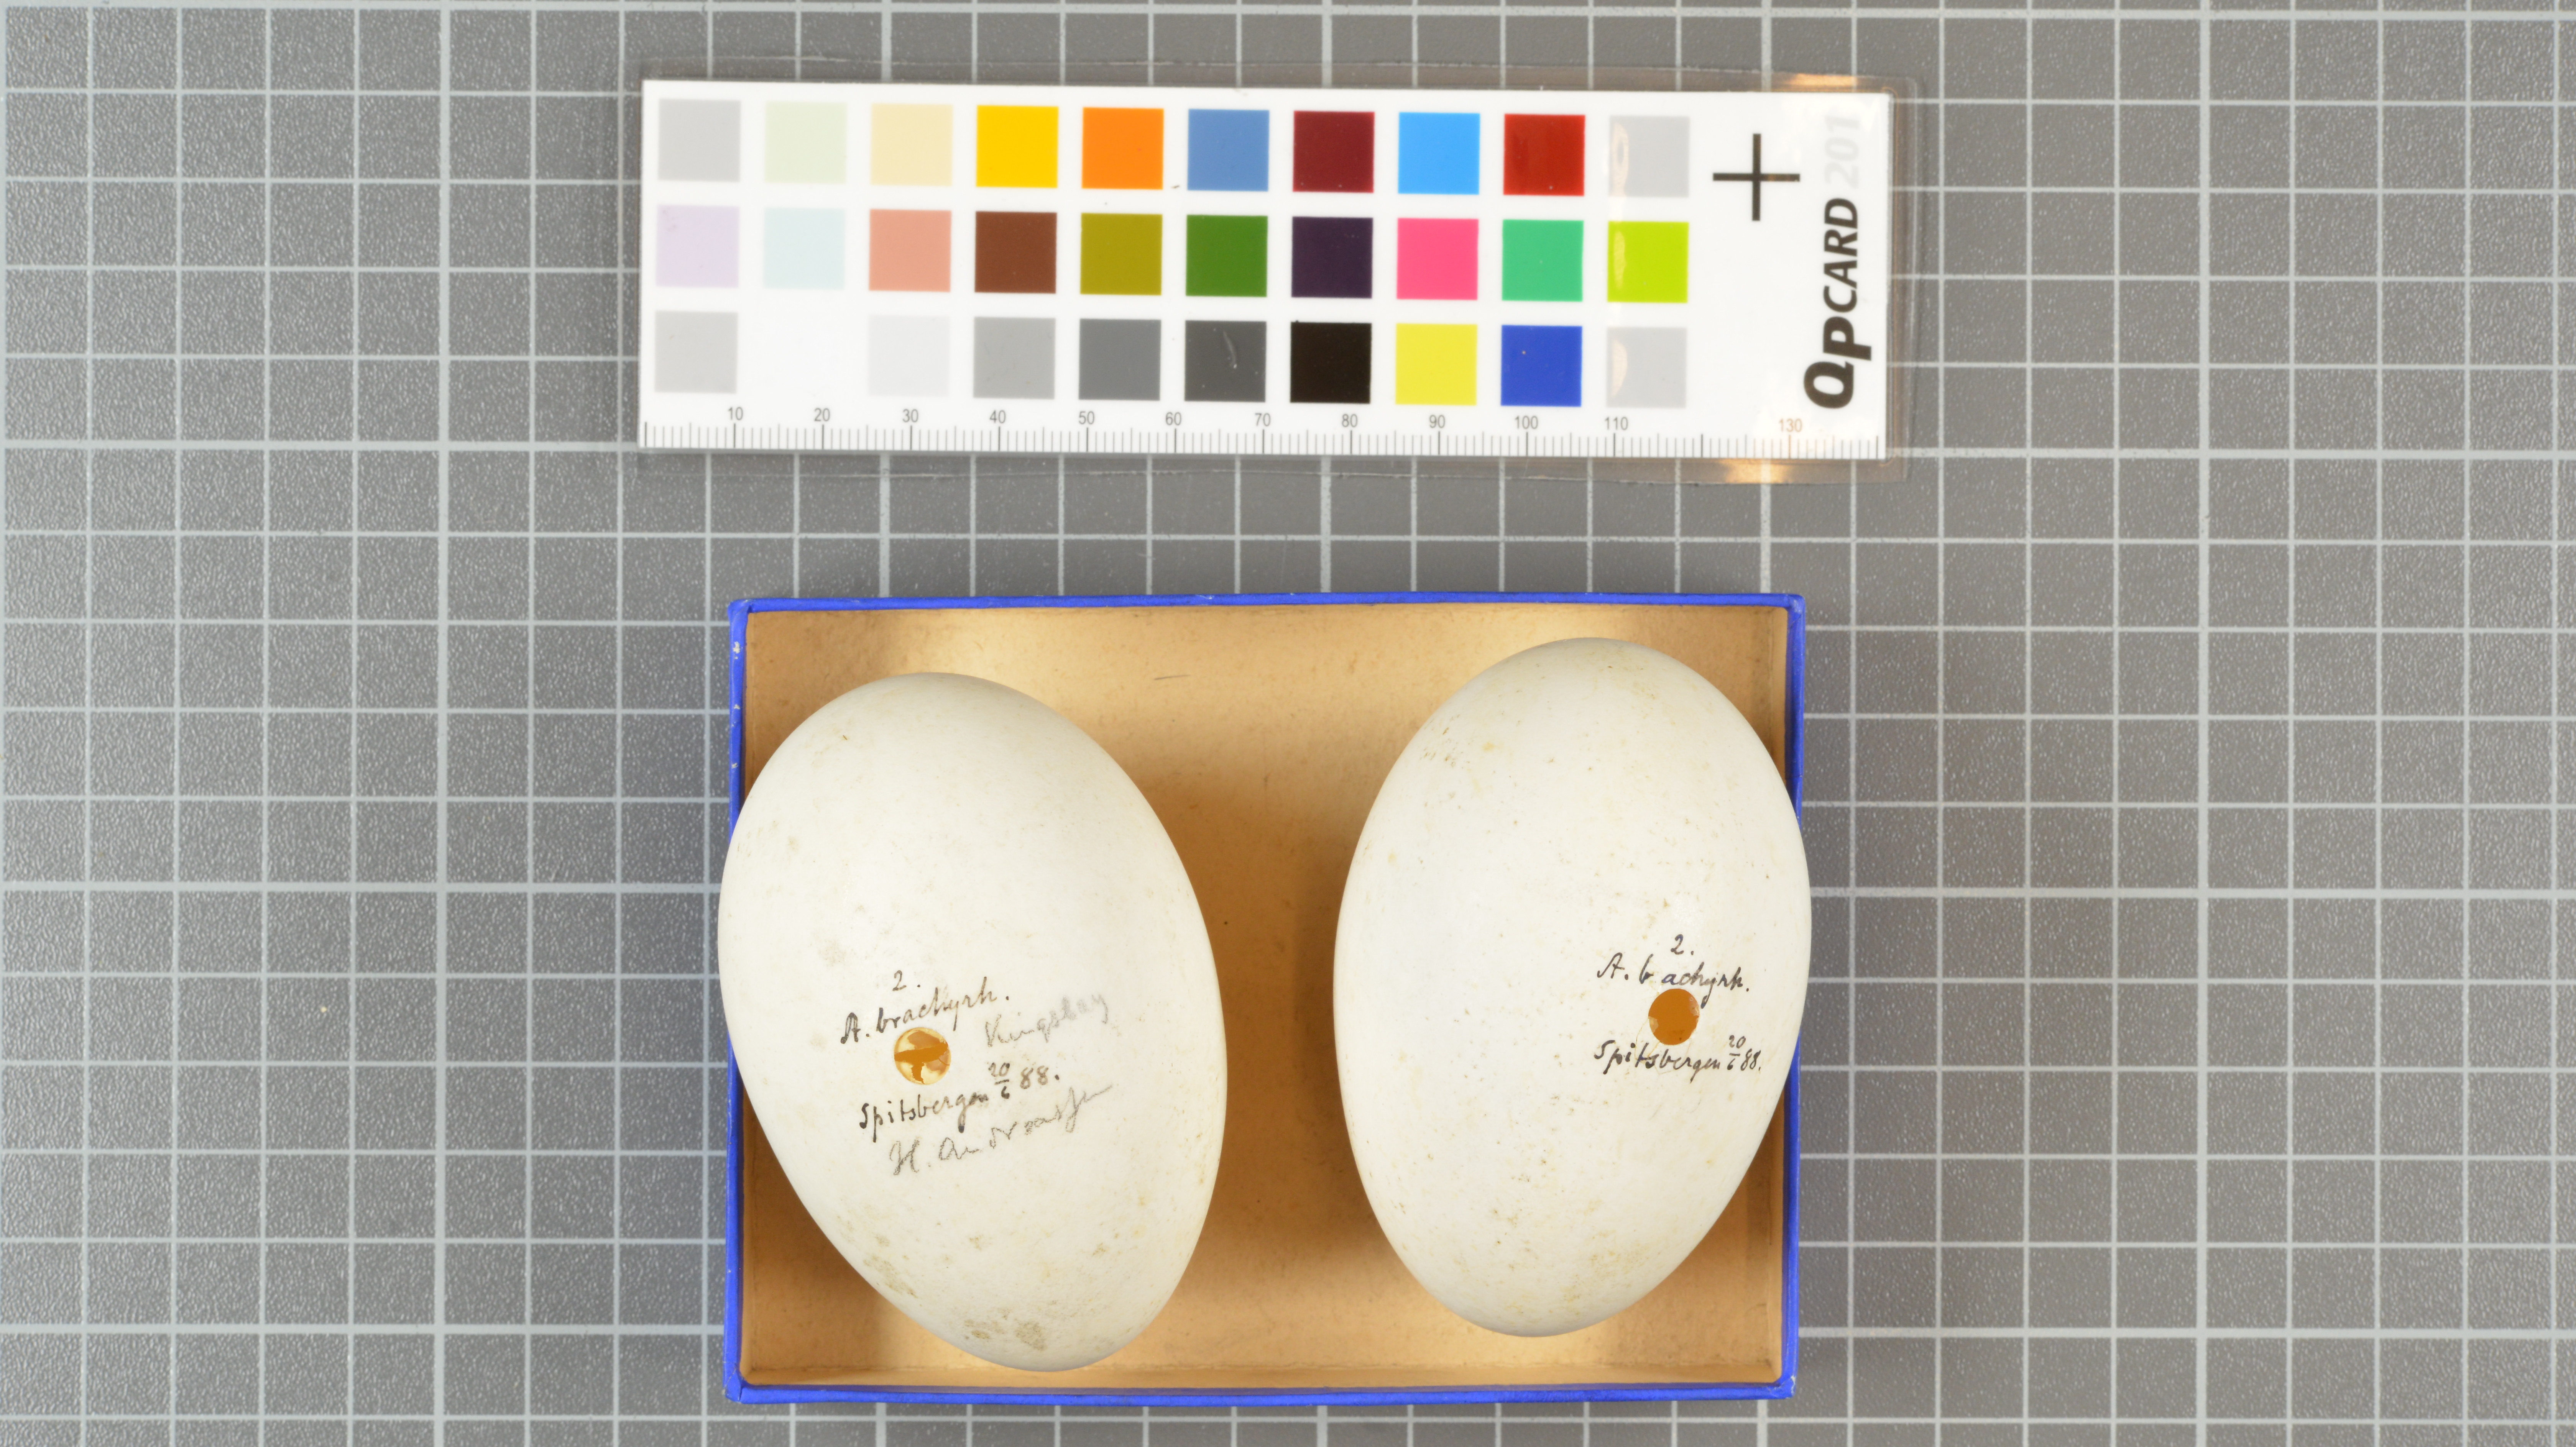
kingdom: Animalia
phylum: Chordata
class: Aves
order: Anseriformes
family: Anatidae
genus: Anser
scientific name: Anser brachyrhynchus
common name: Pink-footed goose
